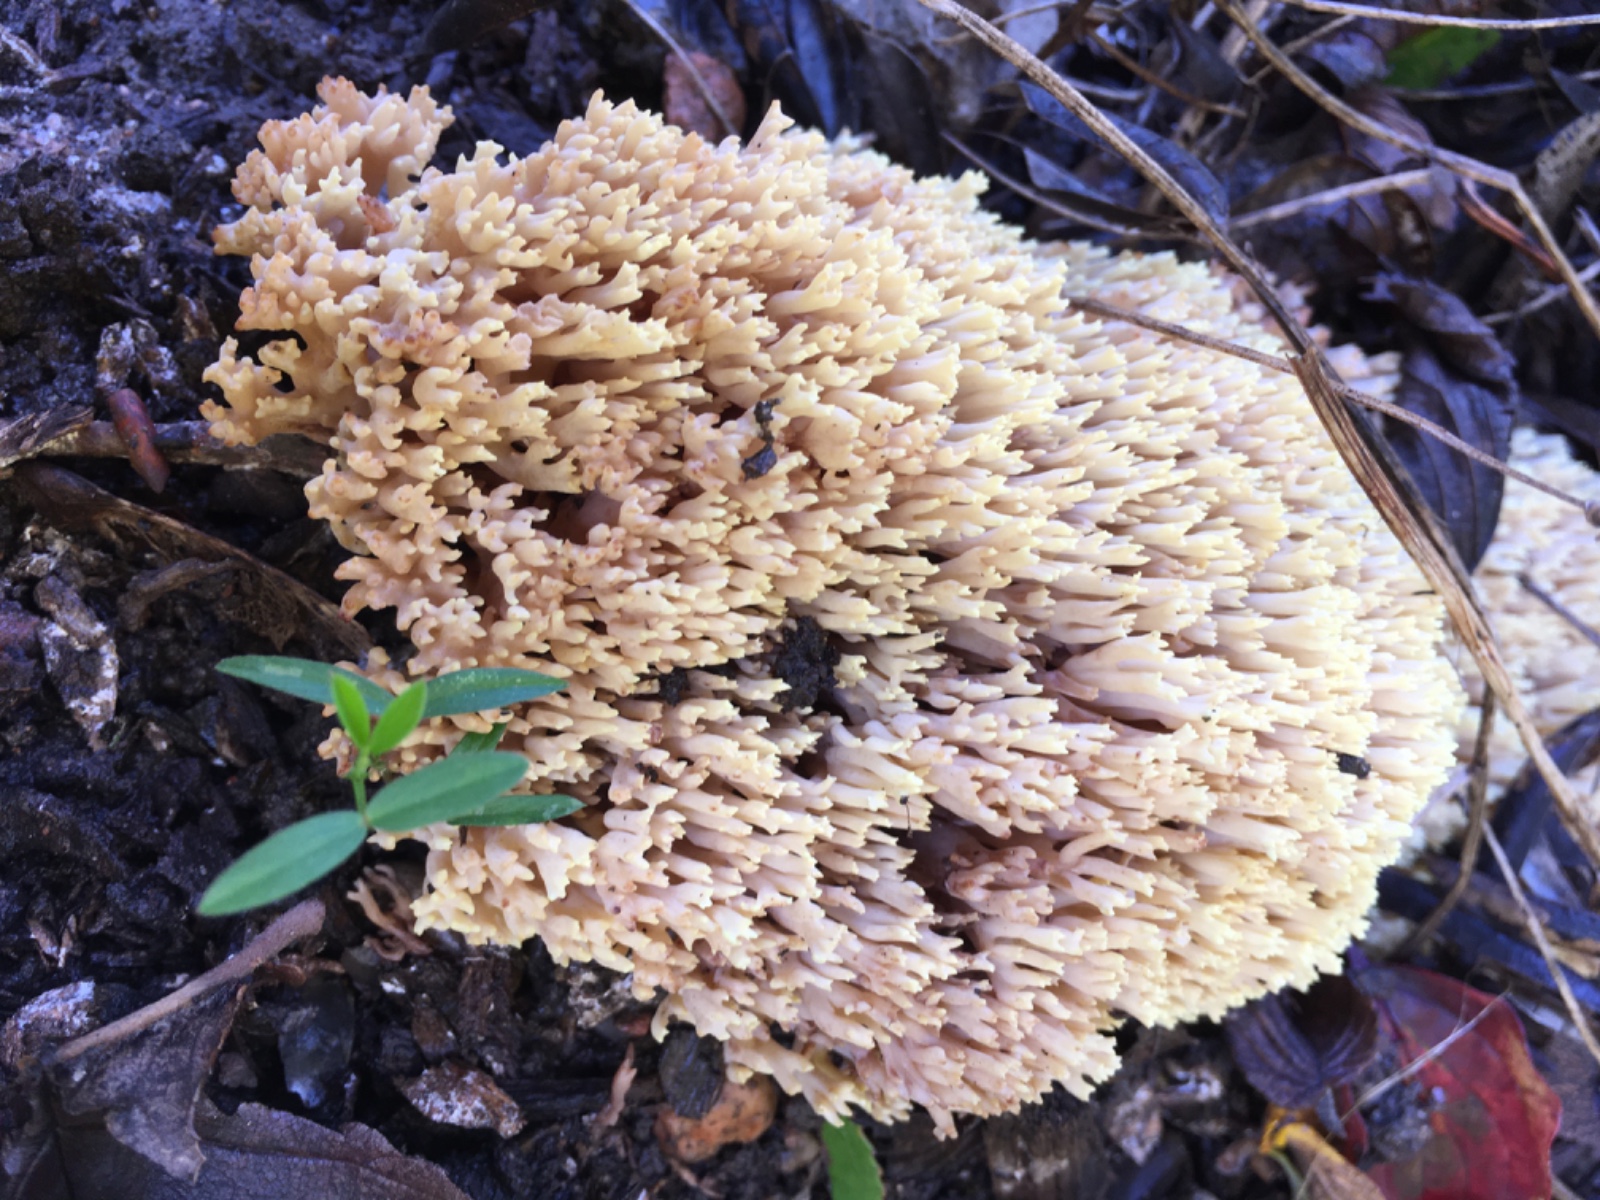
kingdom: Fungi
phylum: Basidiomycota
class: Agaricomycetes
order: Gomphales
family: Gomphaceae
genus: Ramaria
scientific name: Ramaria stricta
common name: rank koralsvamp
